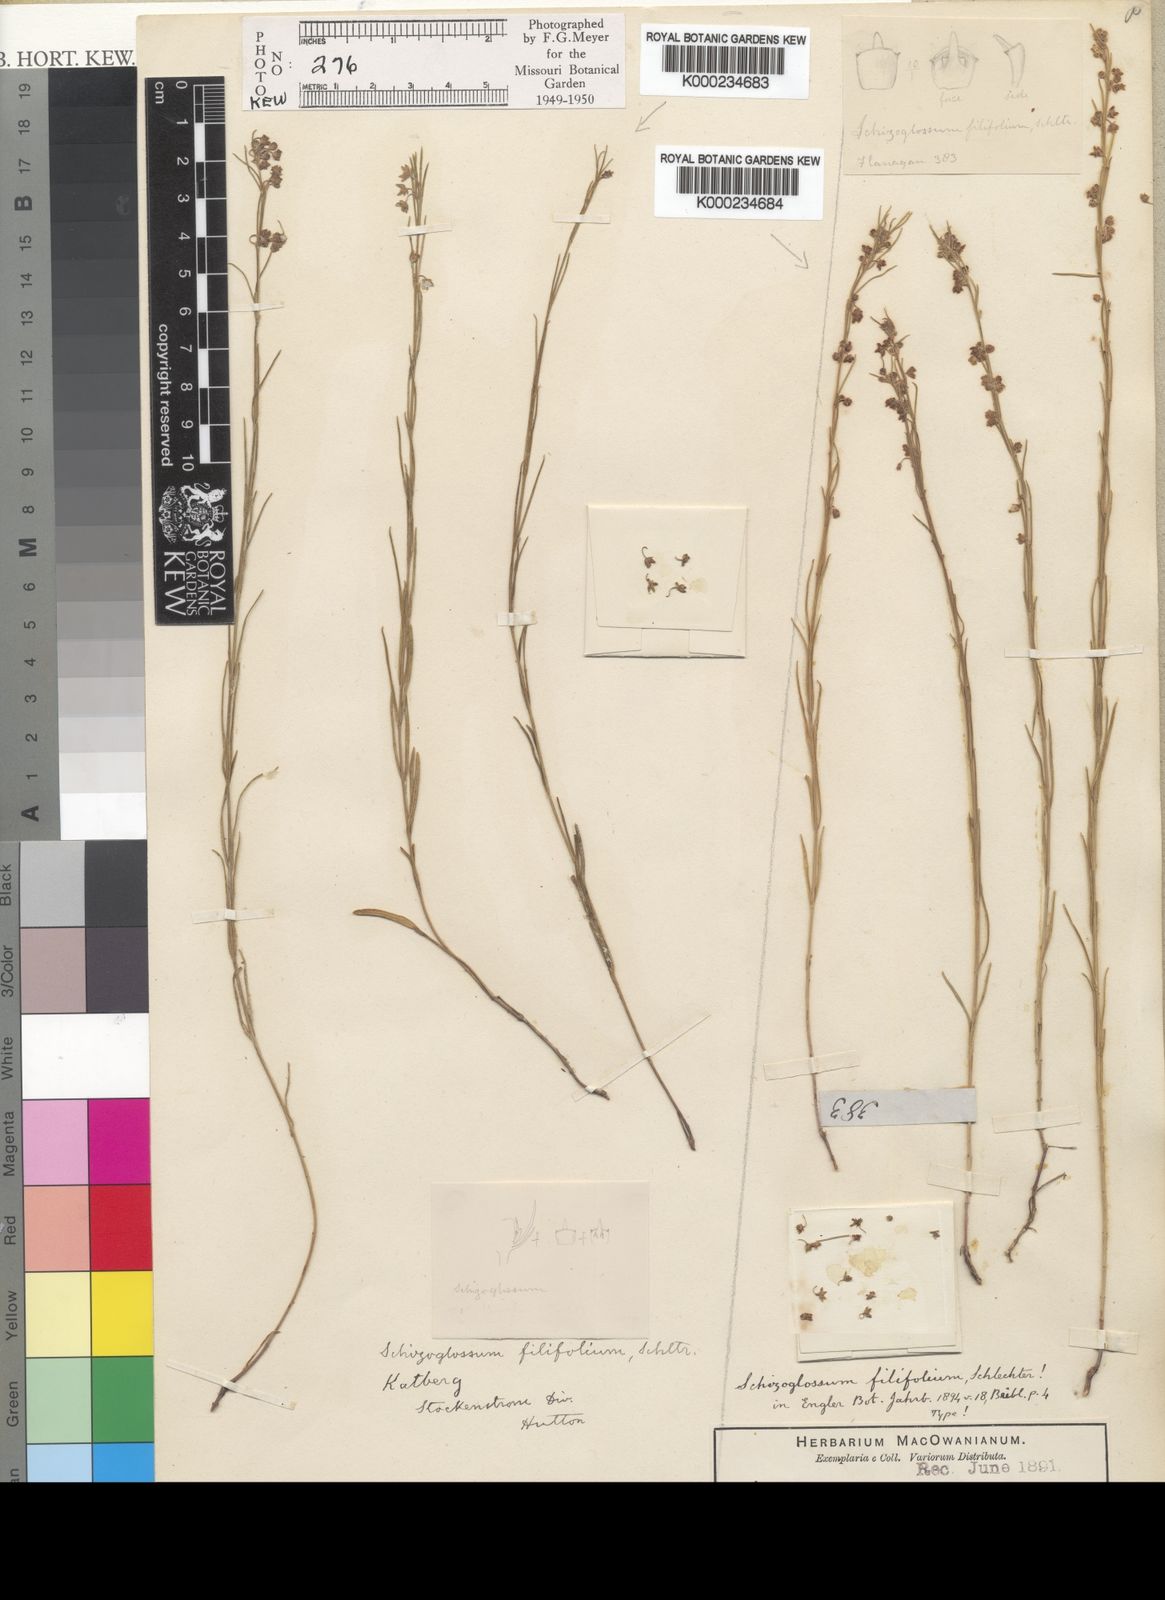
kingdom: Plantae
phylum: Tracheophyta
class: Magnoliopsida
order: Gentianales
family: Apocynaceae
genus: Aspidoglossum
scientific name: Aspidoglossum gracile
